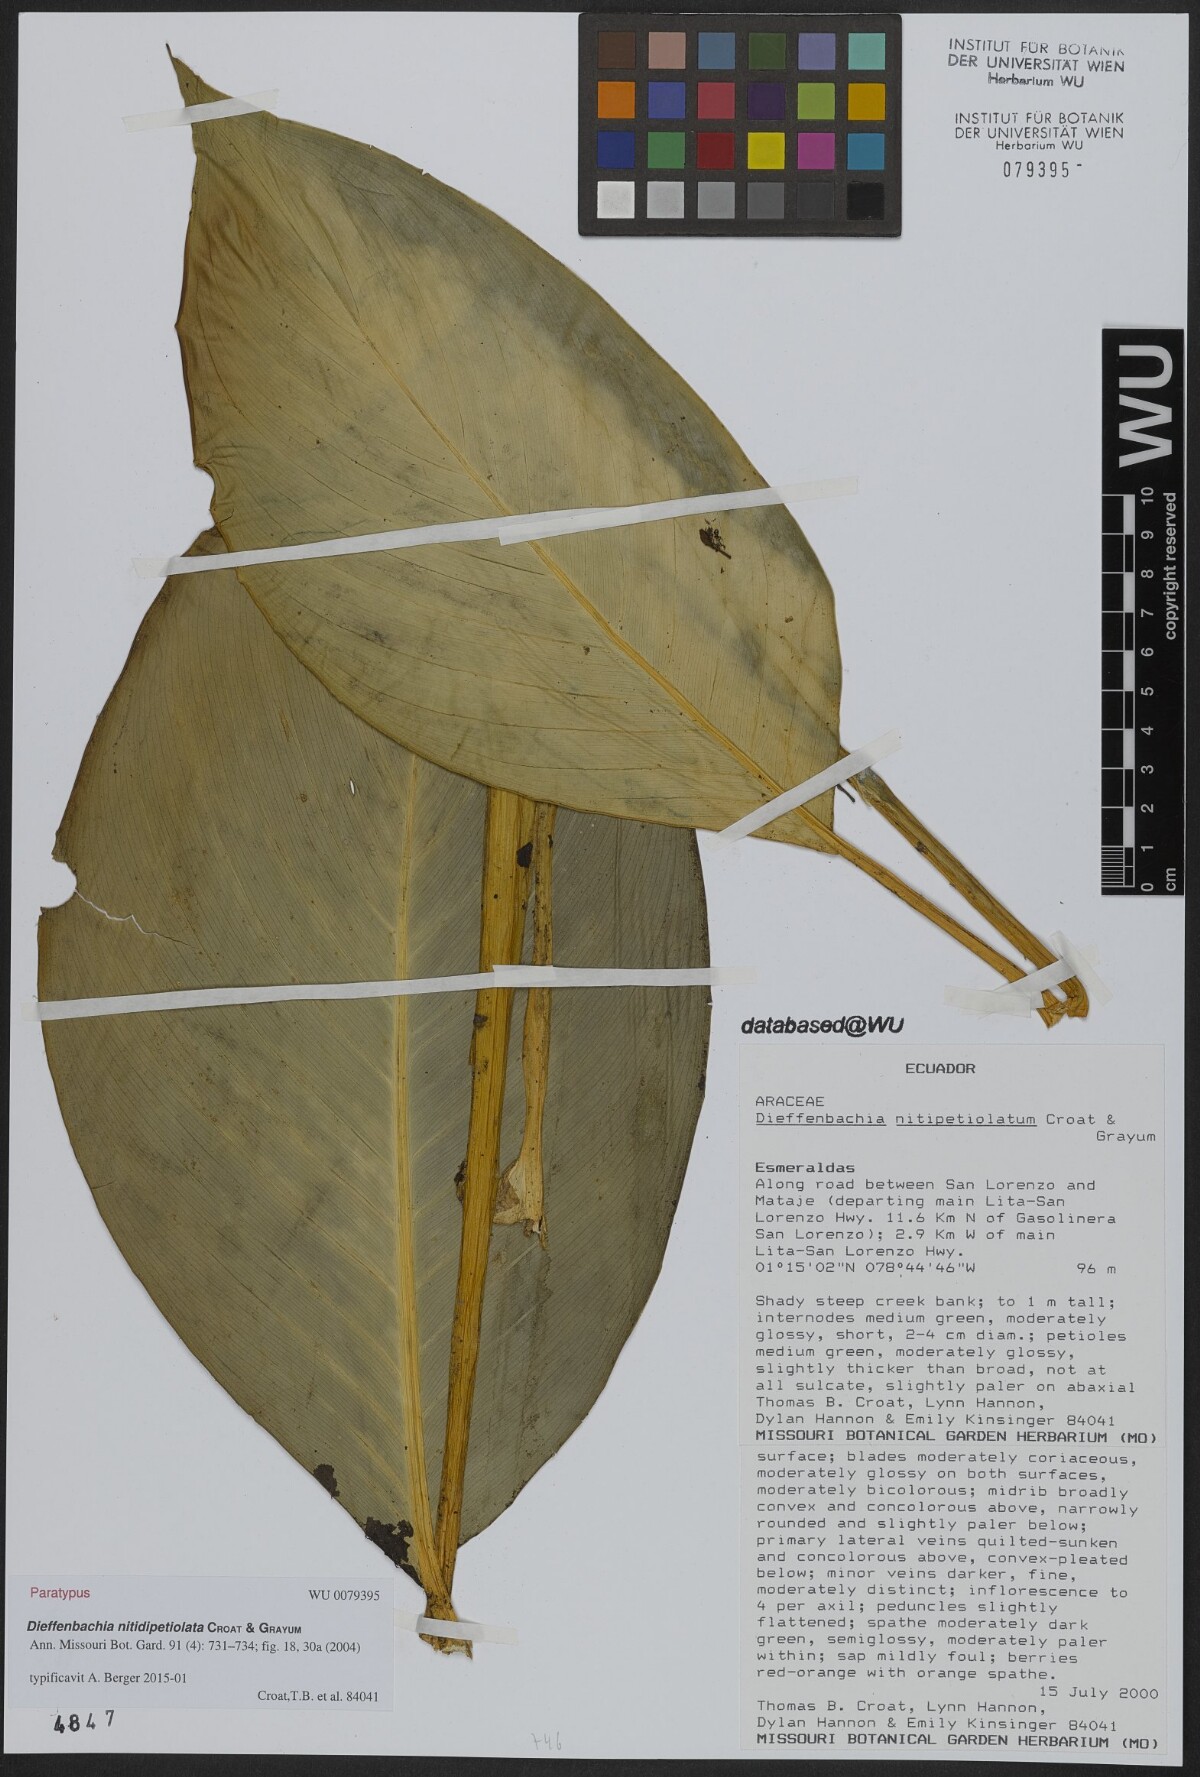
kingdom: Plantae
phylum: Tracheophyta
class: Liliopsida
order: Alismatales
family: Araceae
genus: Dieffenbachia
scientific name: Dieffenbachia nitidipetiolata
